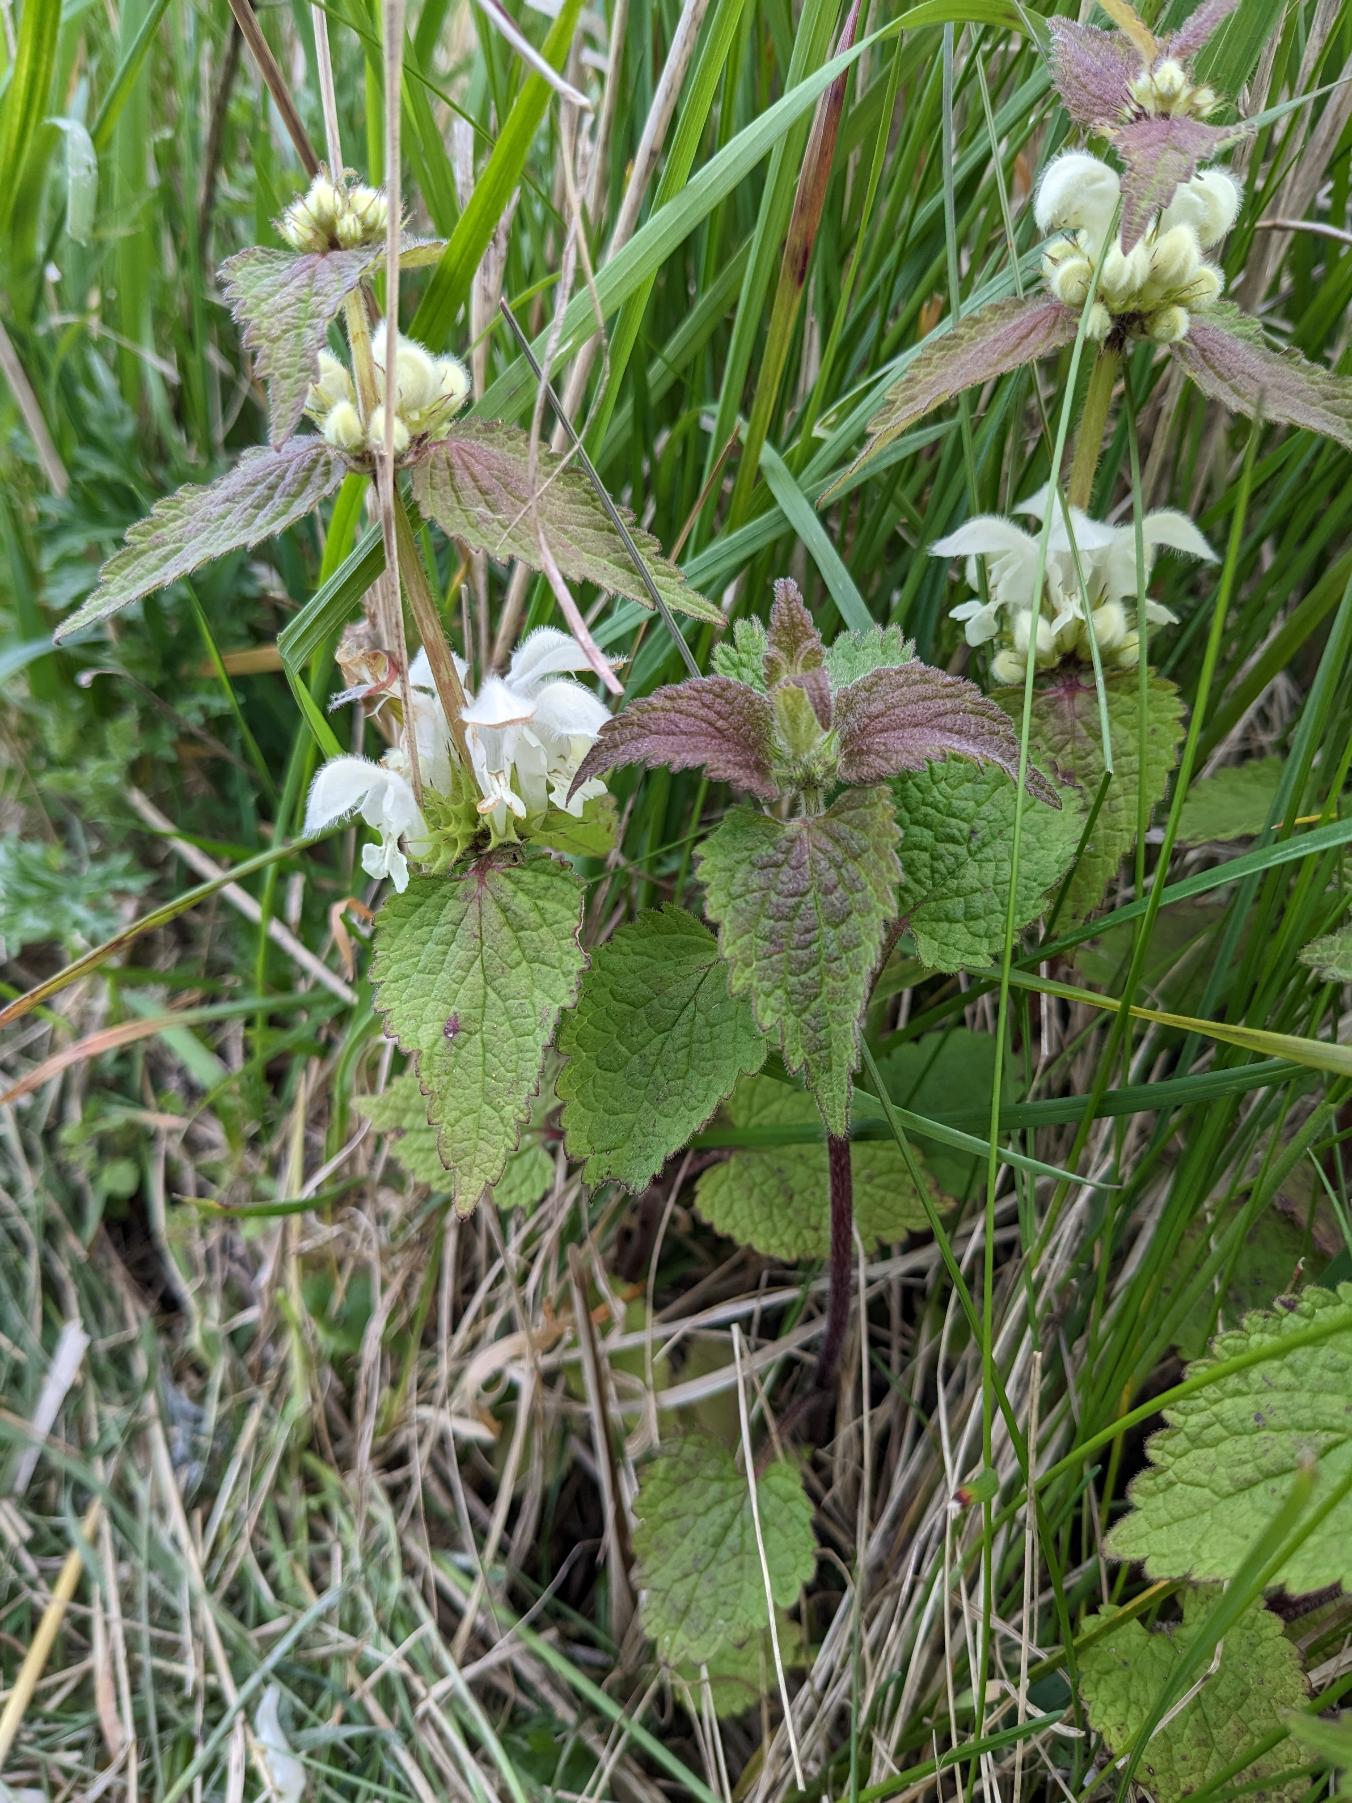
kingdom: Plantae
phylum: Tracheophyta
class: Magnoliopsida
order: Lamiales
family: Lamiaceae
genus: Lamium
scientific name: Lamium album
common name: Døvnælde
